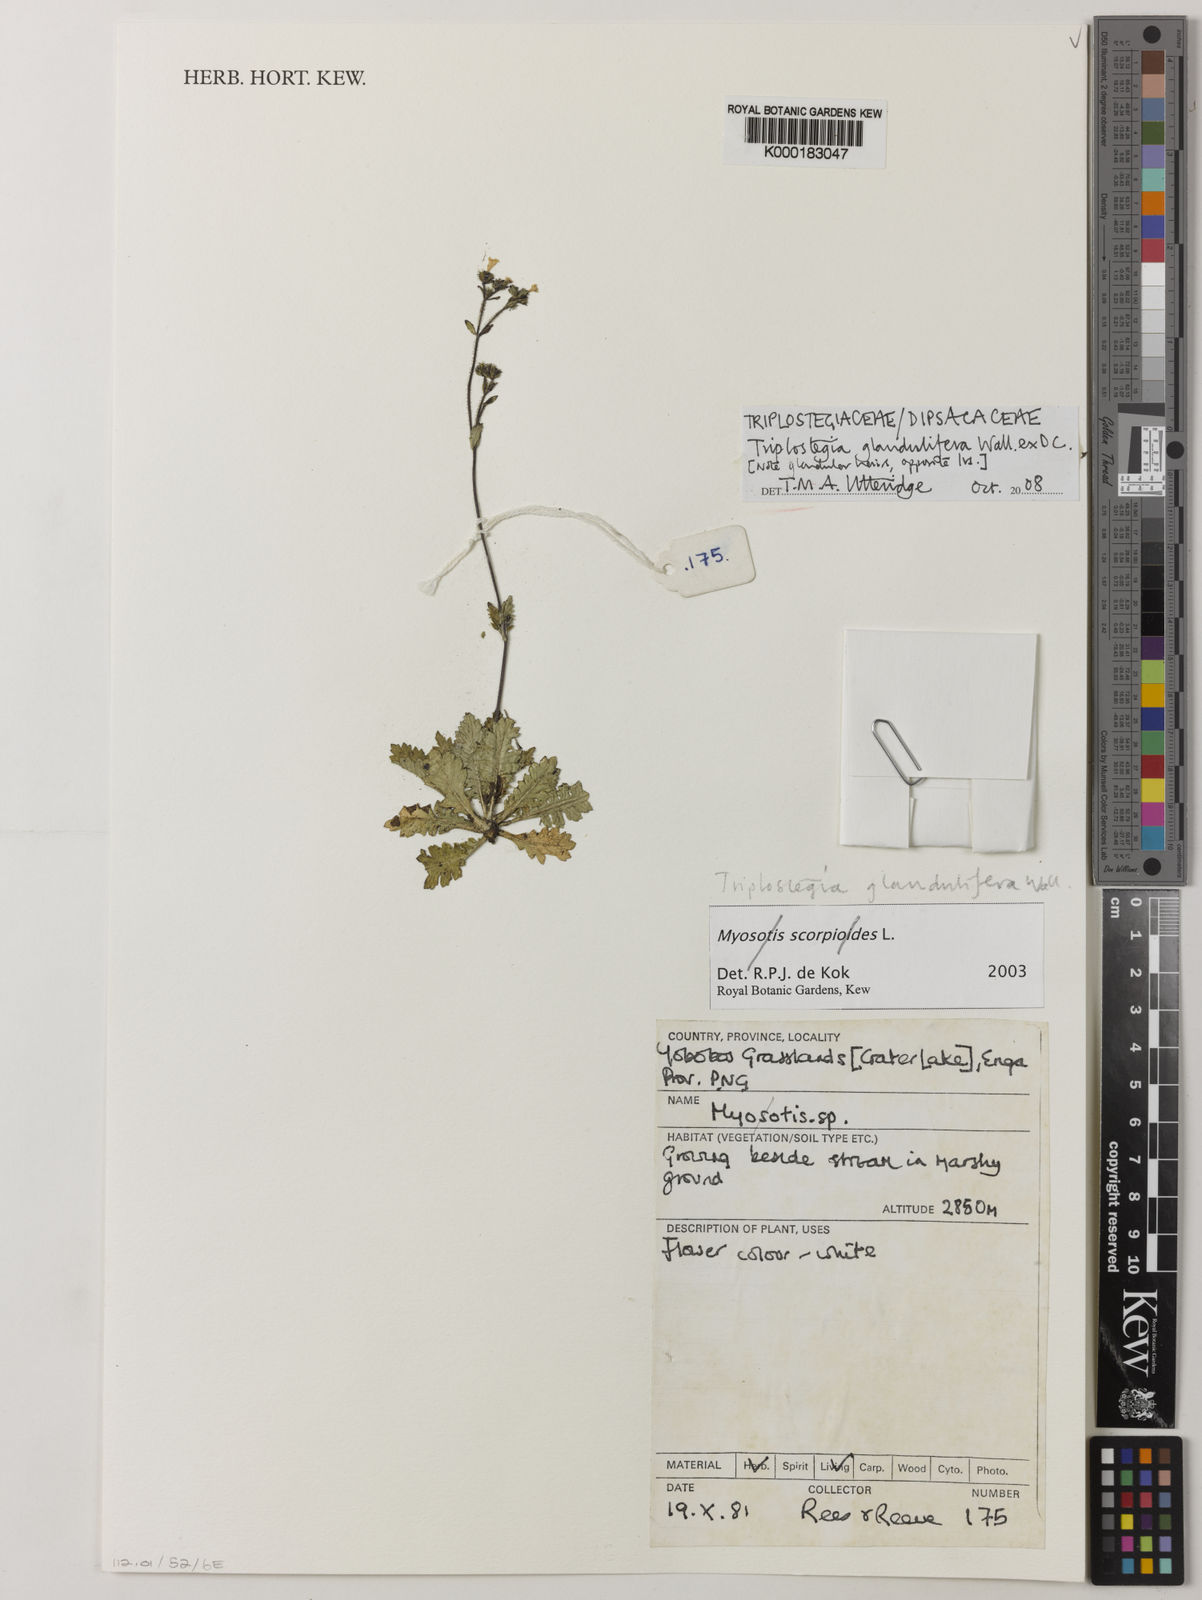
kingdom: Plantae
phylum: Tracheophyta
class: Magnoliopsida
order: Dipsacales
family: Caprifoliaceae
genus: Triplostegia
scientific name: Triplostegia
